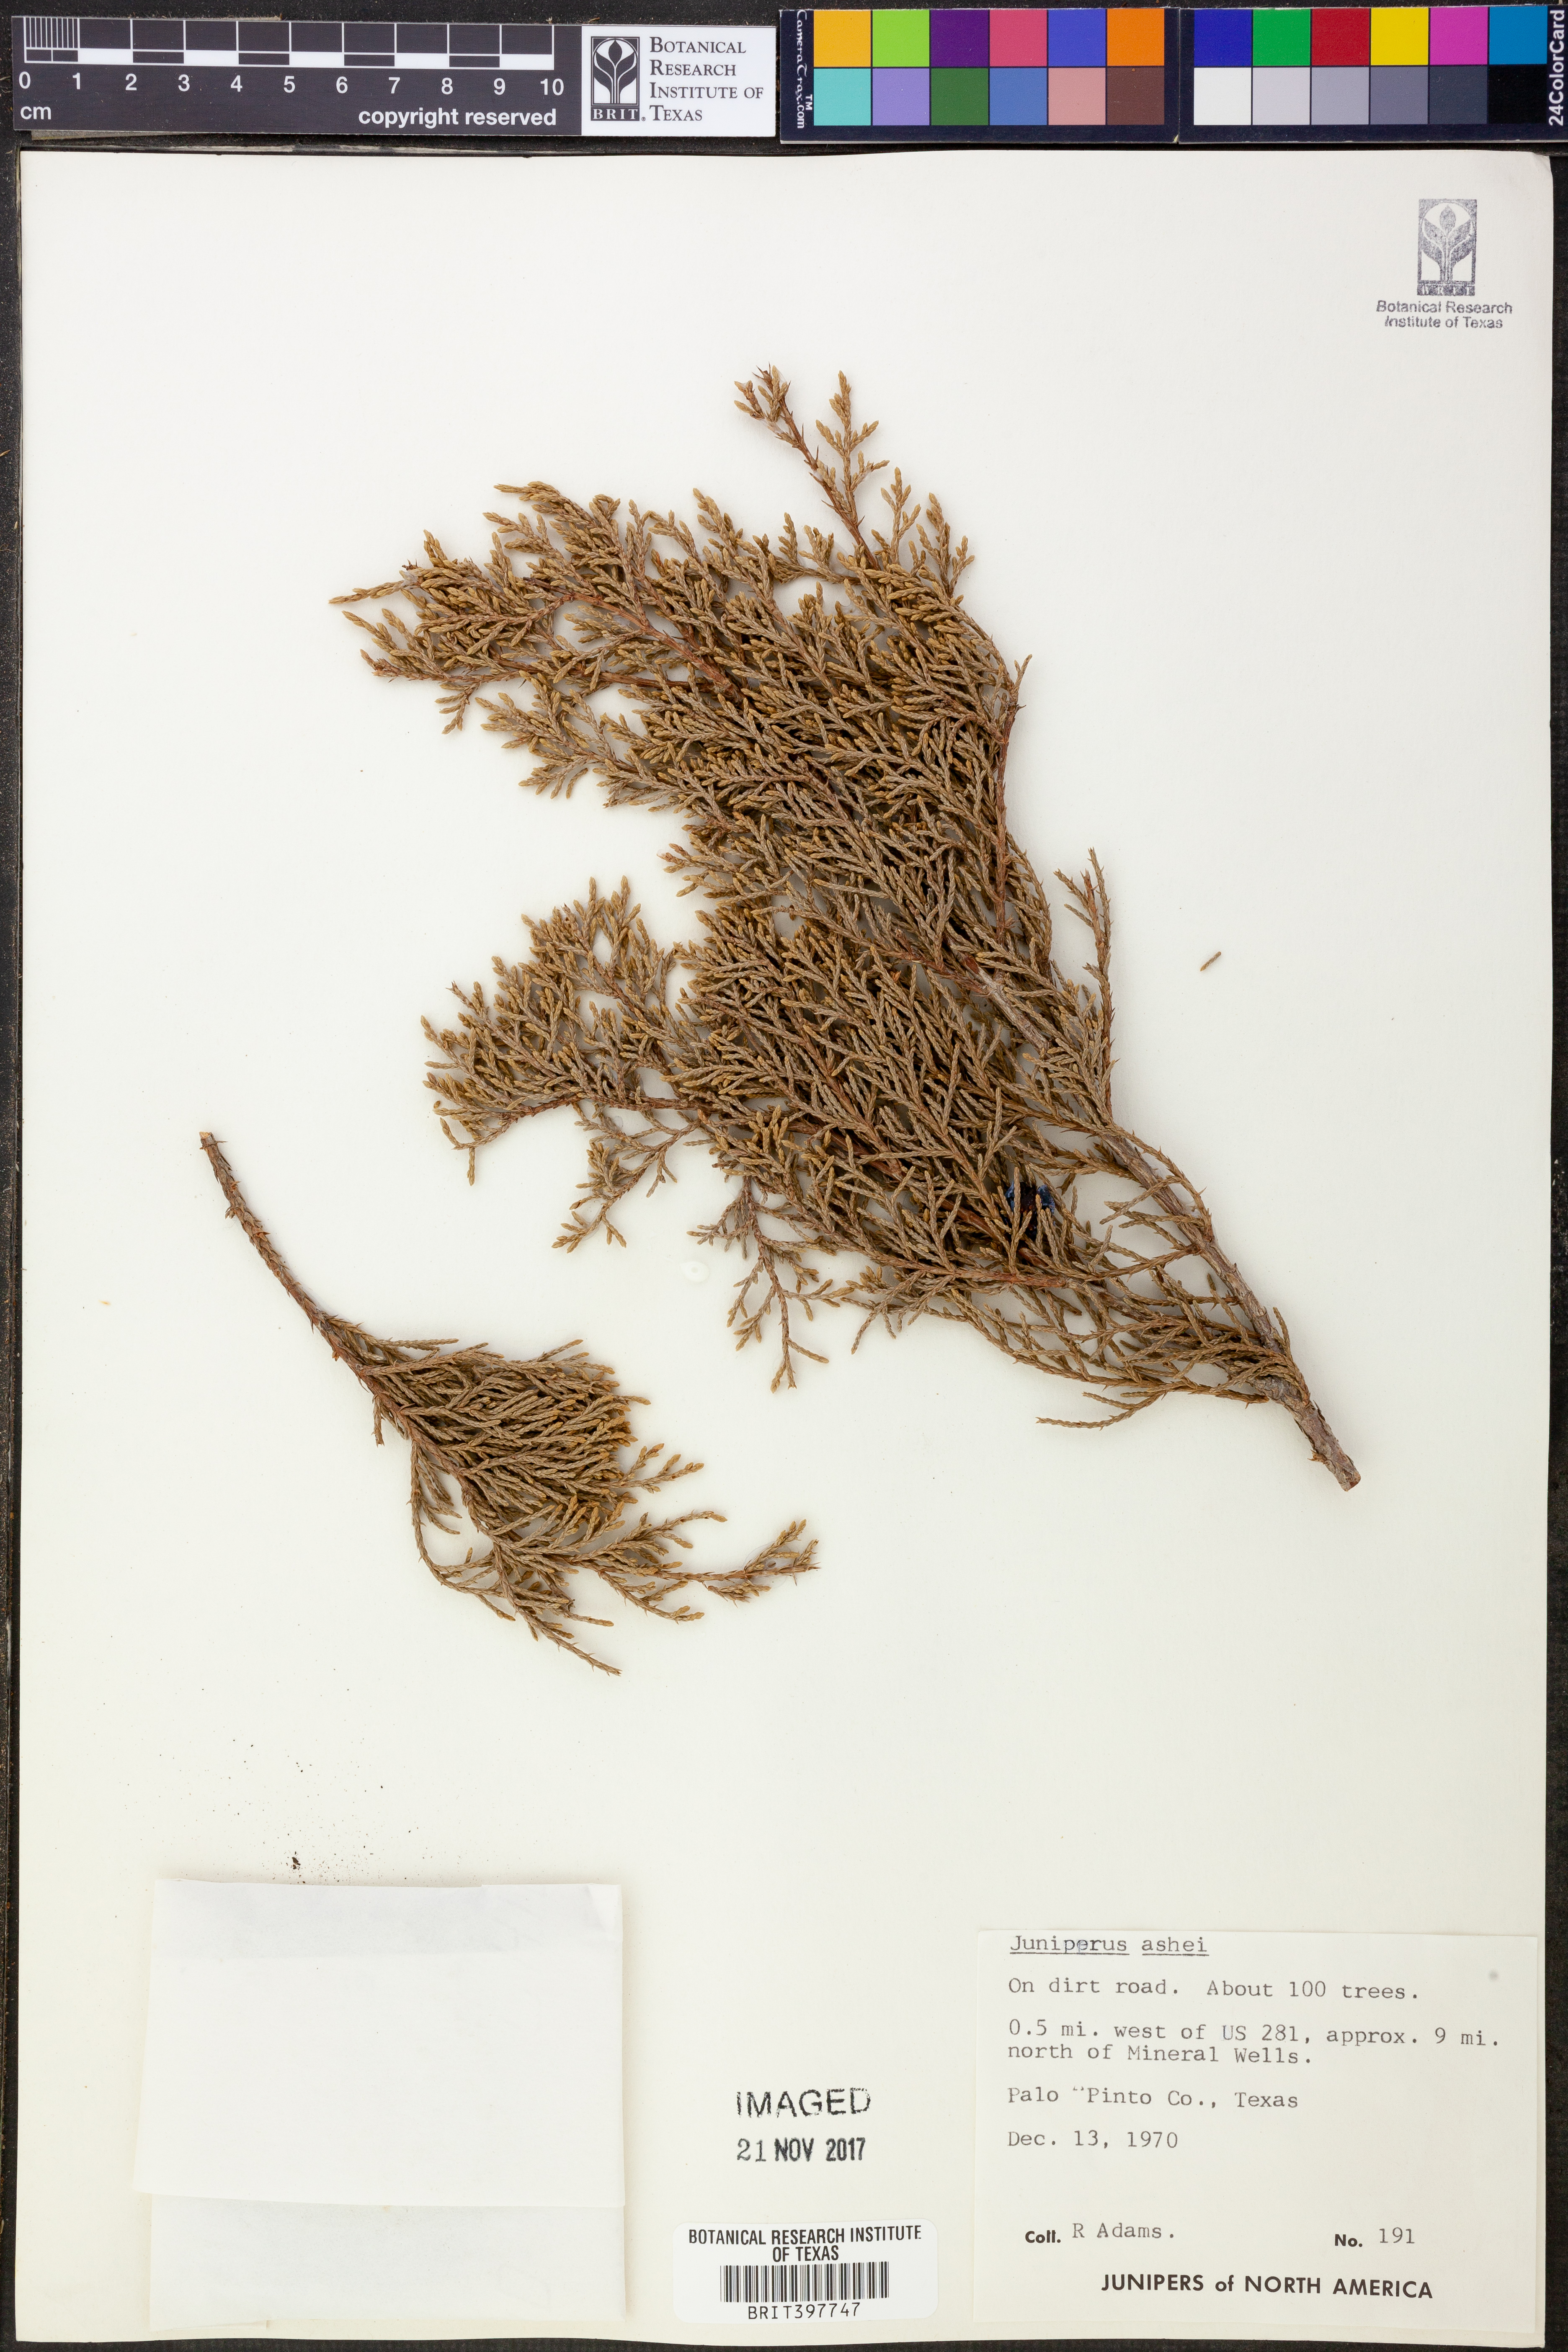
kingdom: Plantae
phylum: Tracheophyta
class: Pinopsida
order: Pinales
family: Cupressaceae
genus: Juniperus
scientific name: Juniperus ashei
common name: Mexican juniper
